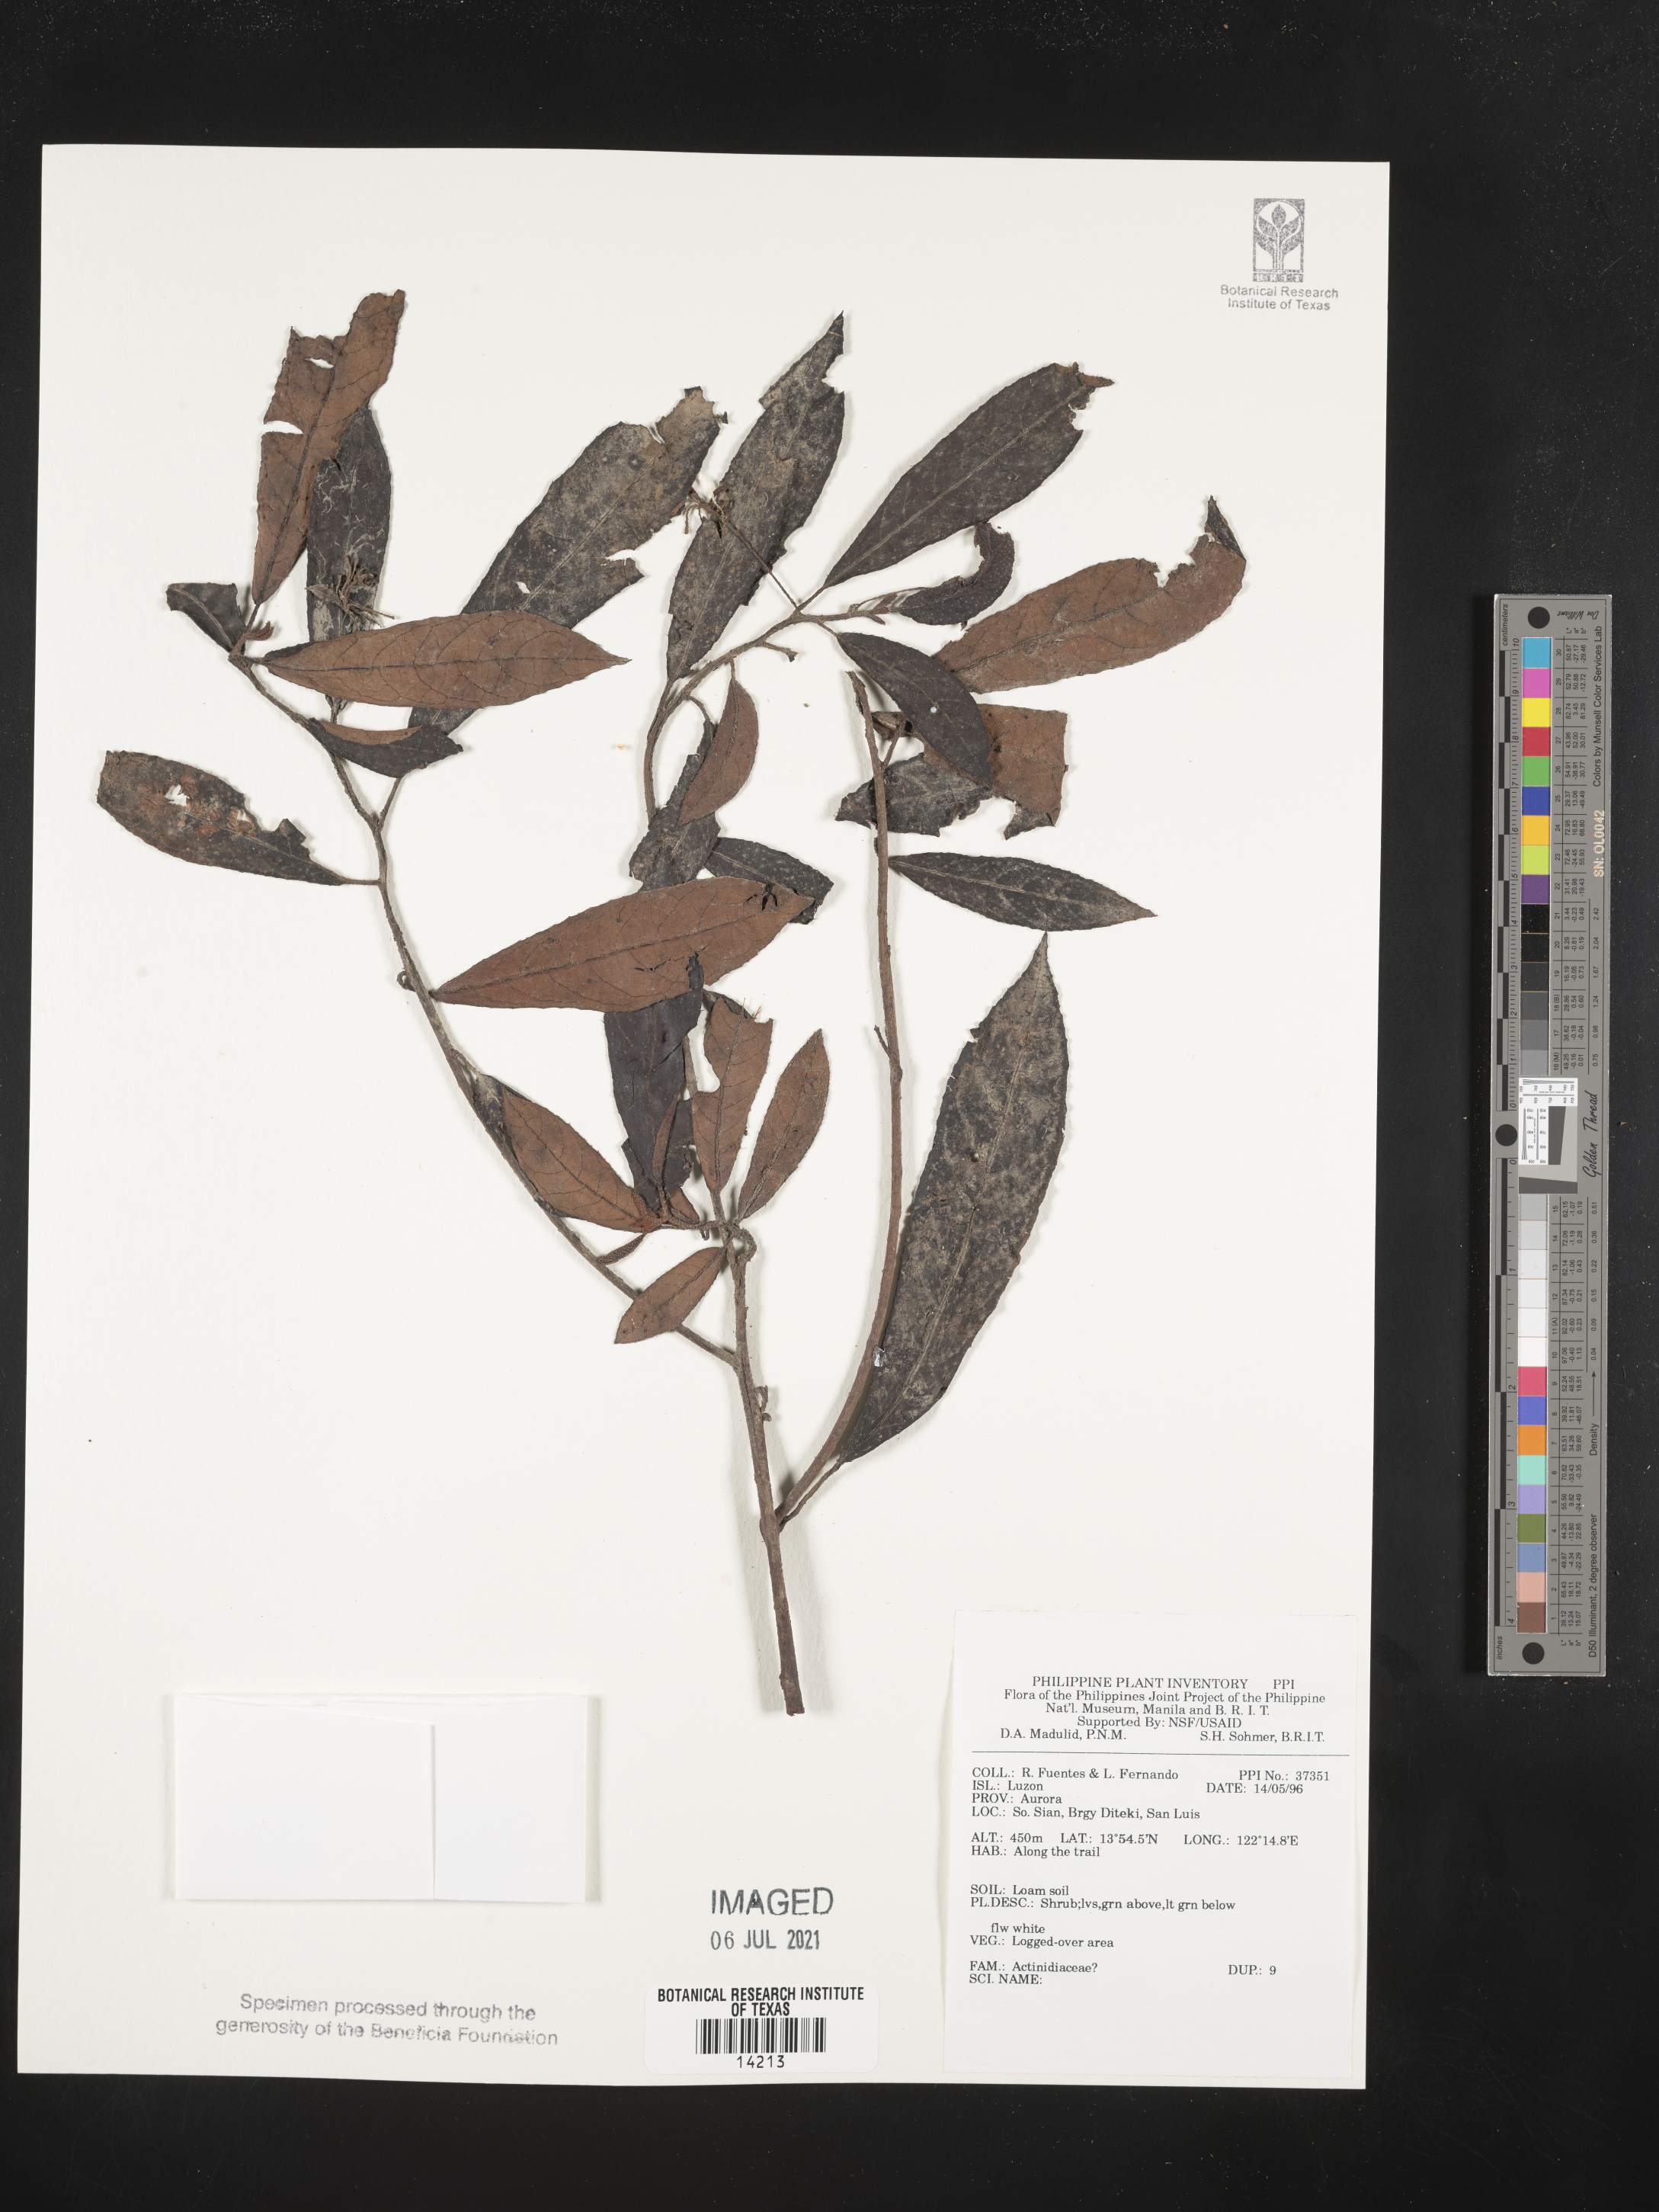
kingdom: Plantae
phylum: Tracheophyta
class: Magnoliopsida
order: Ericales
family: Actinidiaceae
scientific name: Actinidiaceae
